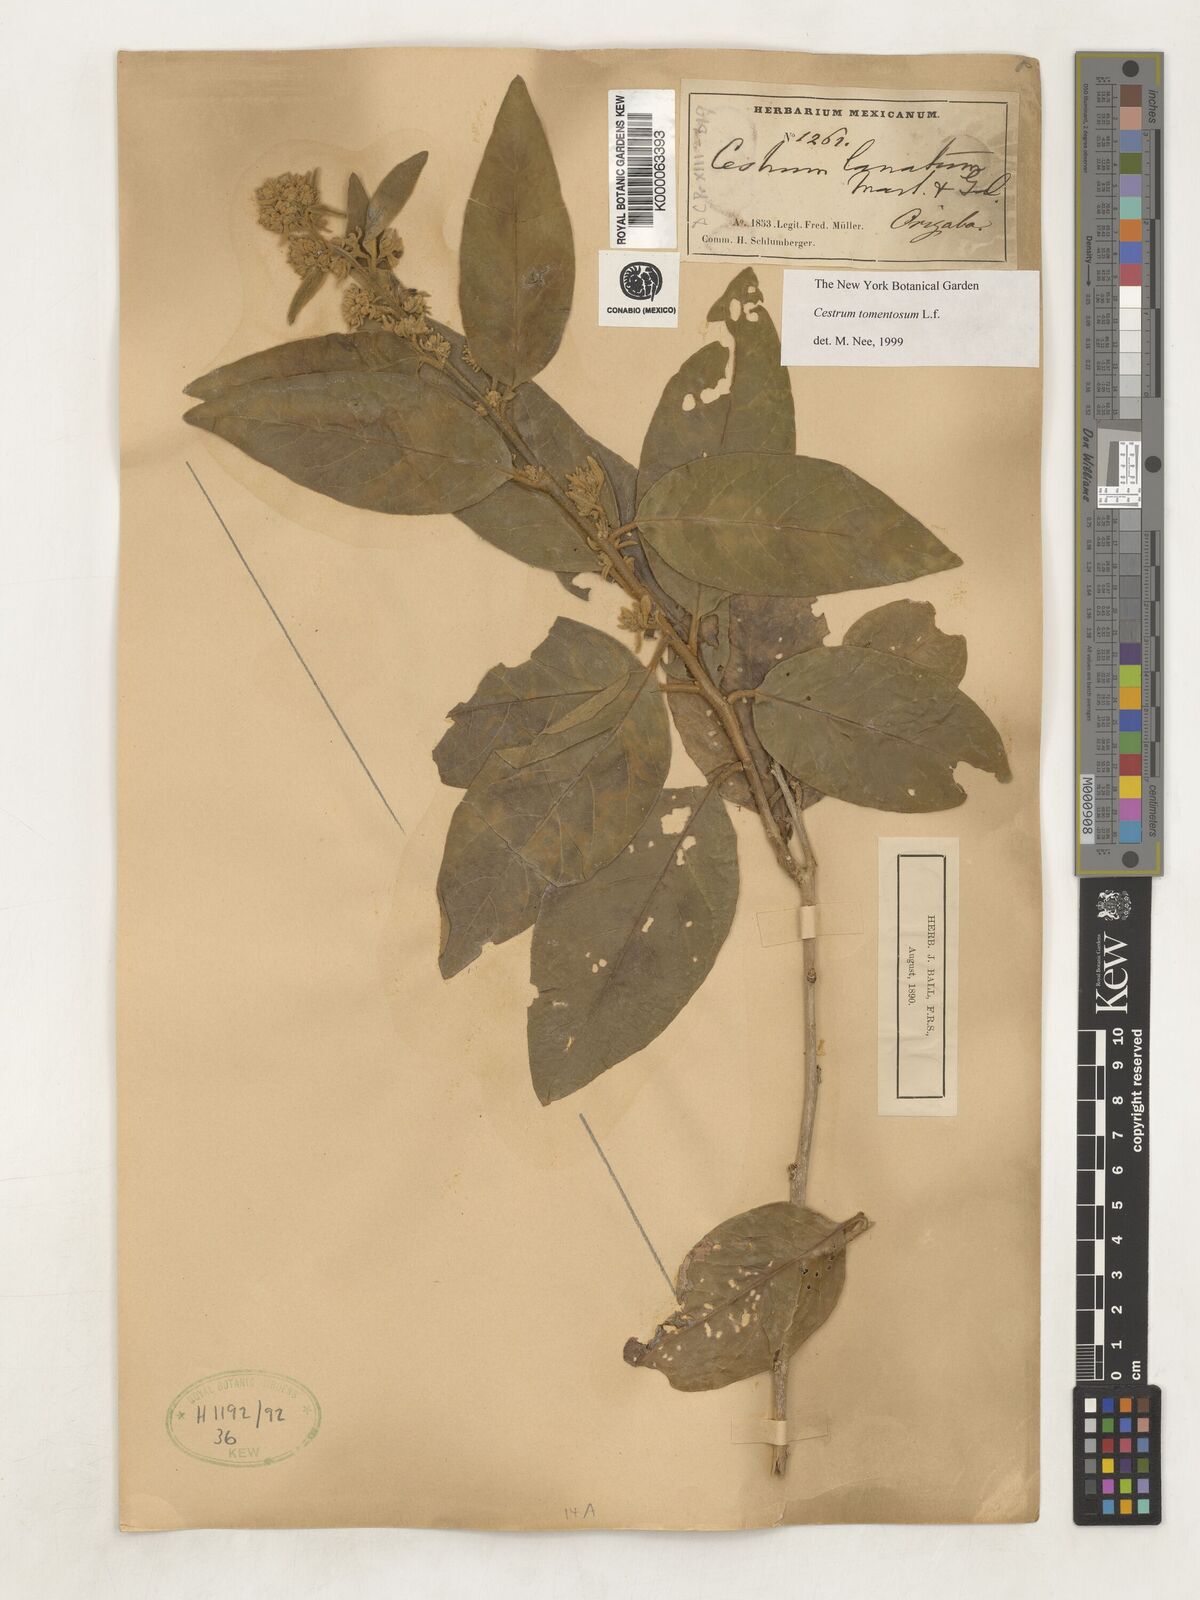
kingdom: Plantae
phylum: Tracheophyta
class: Magnoliopsida
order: Solanales
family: Solanaceae
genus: Cestrum
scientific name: Cestrum tomentosum
